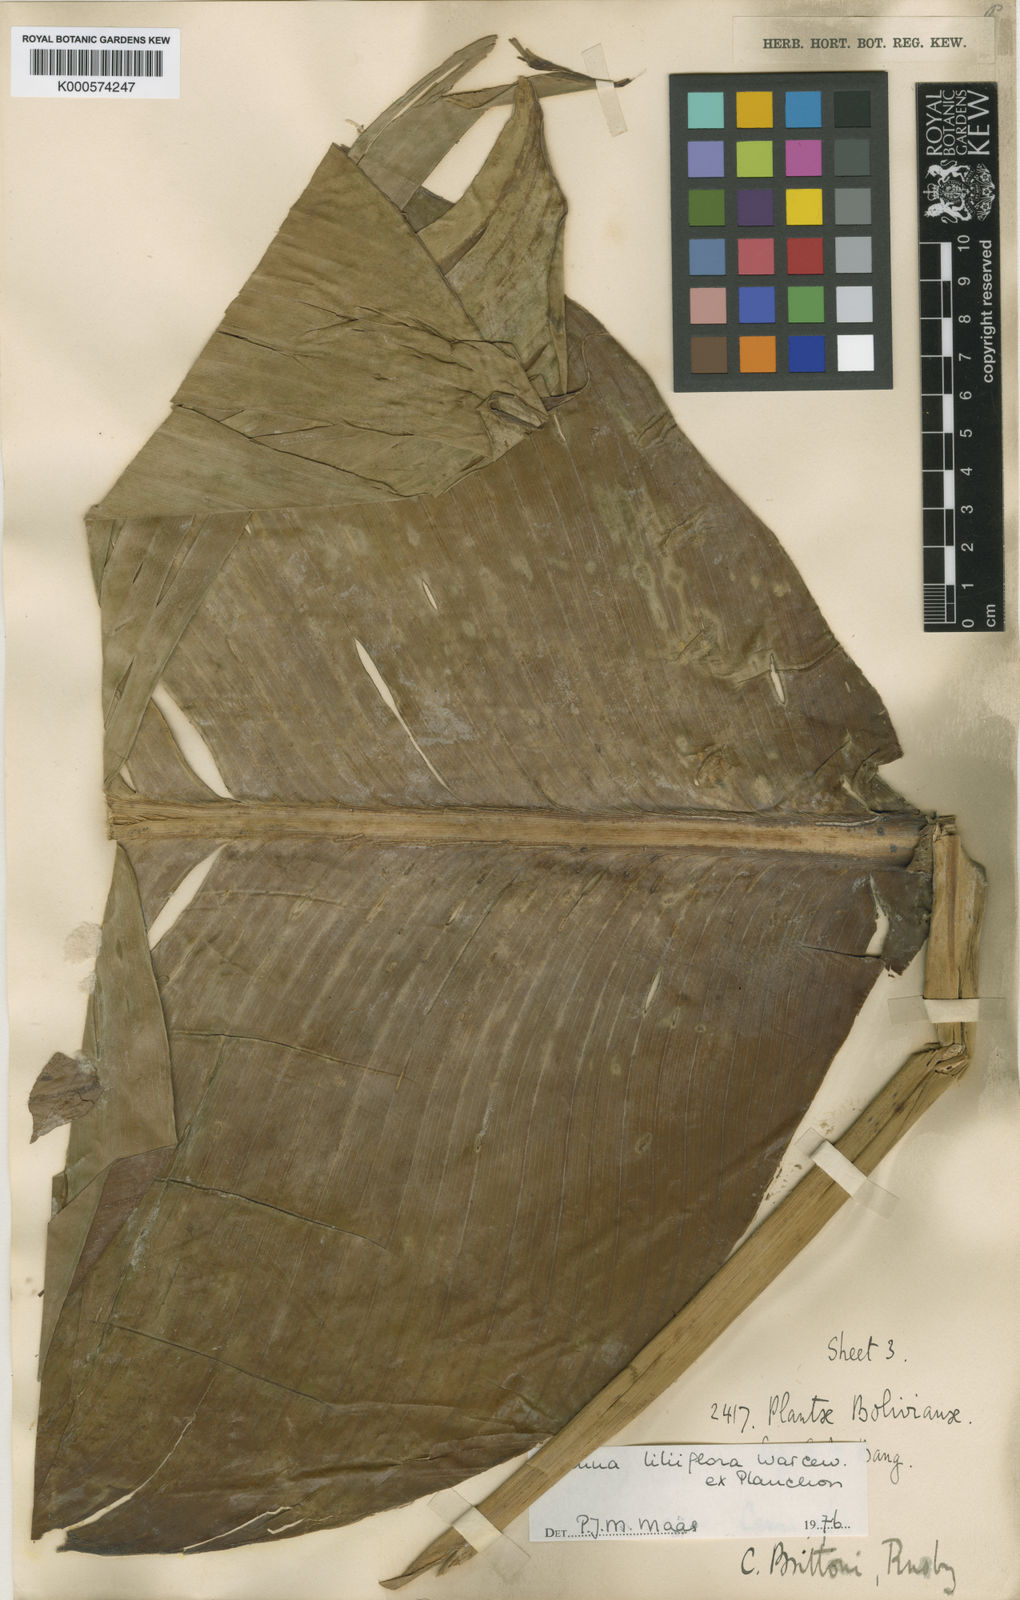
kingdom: Plantae
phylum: Tracheophyta
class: Liliopsida
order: Zingiberales
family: Cannaceae
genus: Canna
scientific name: Canna liliiflora
